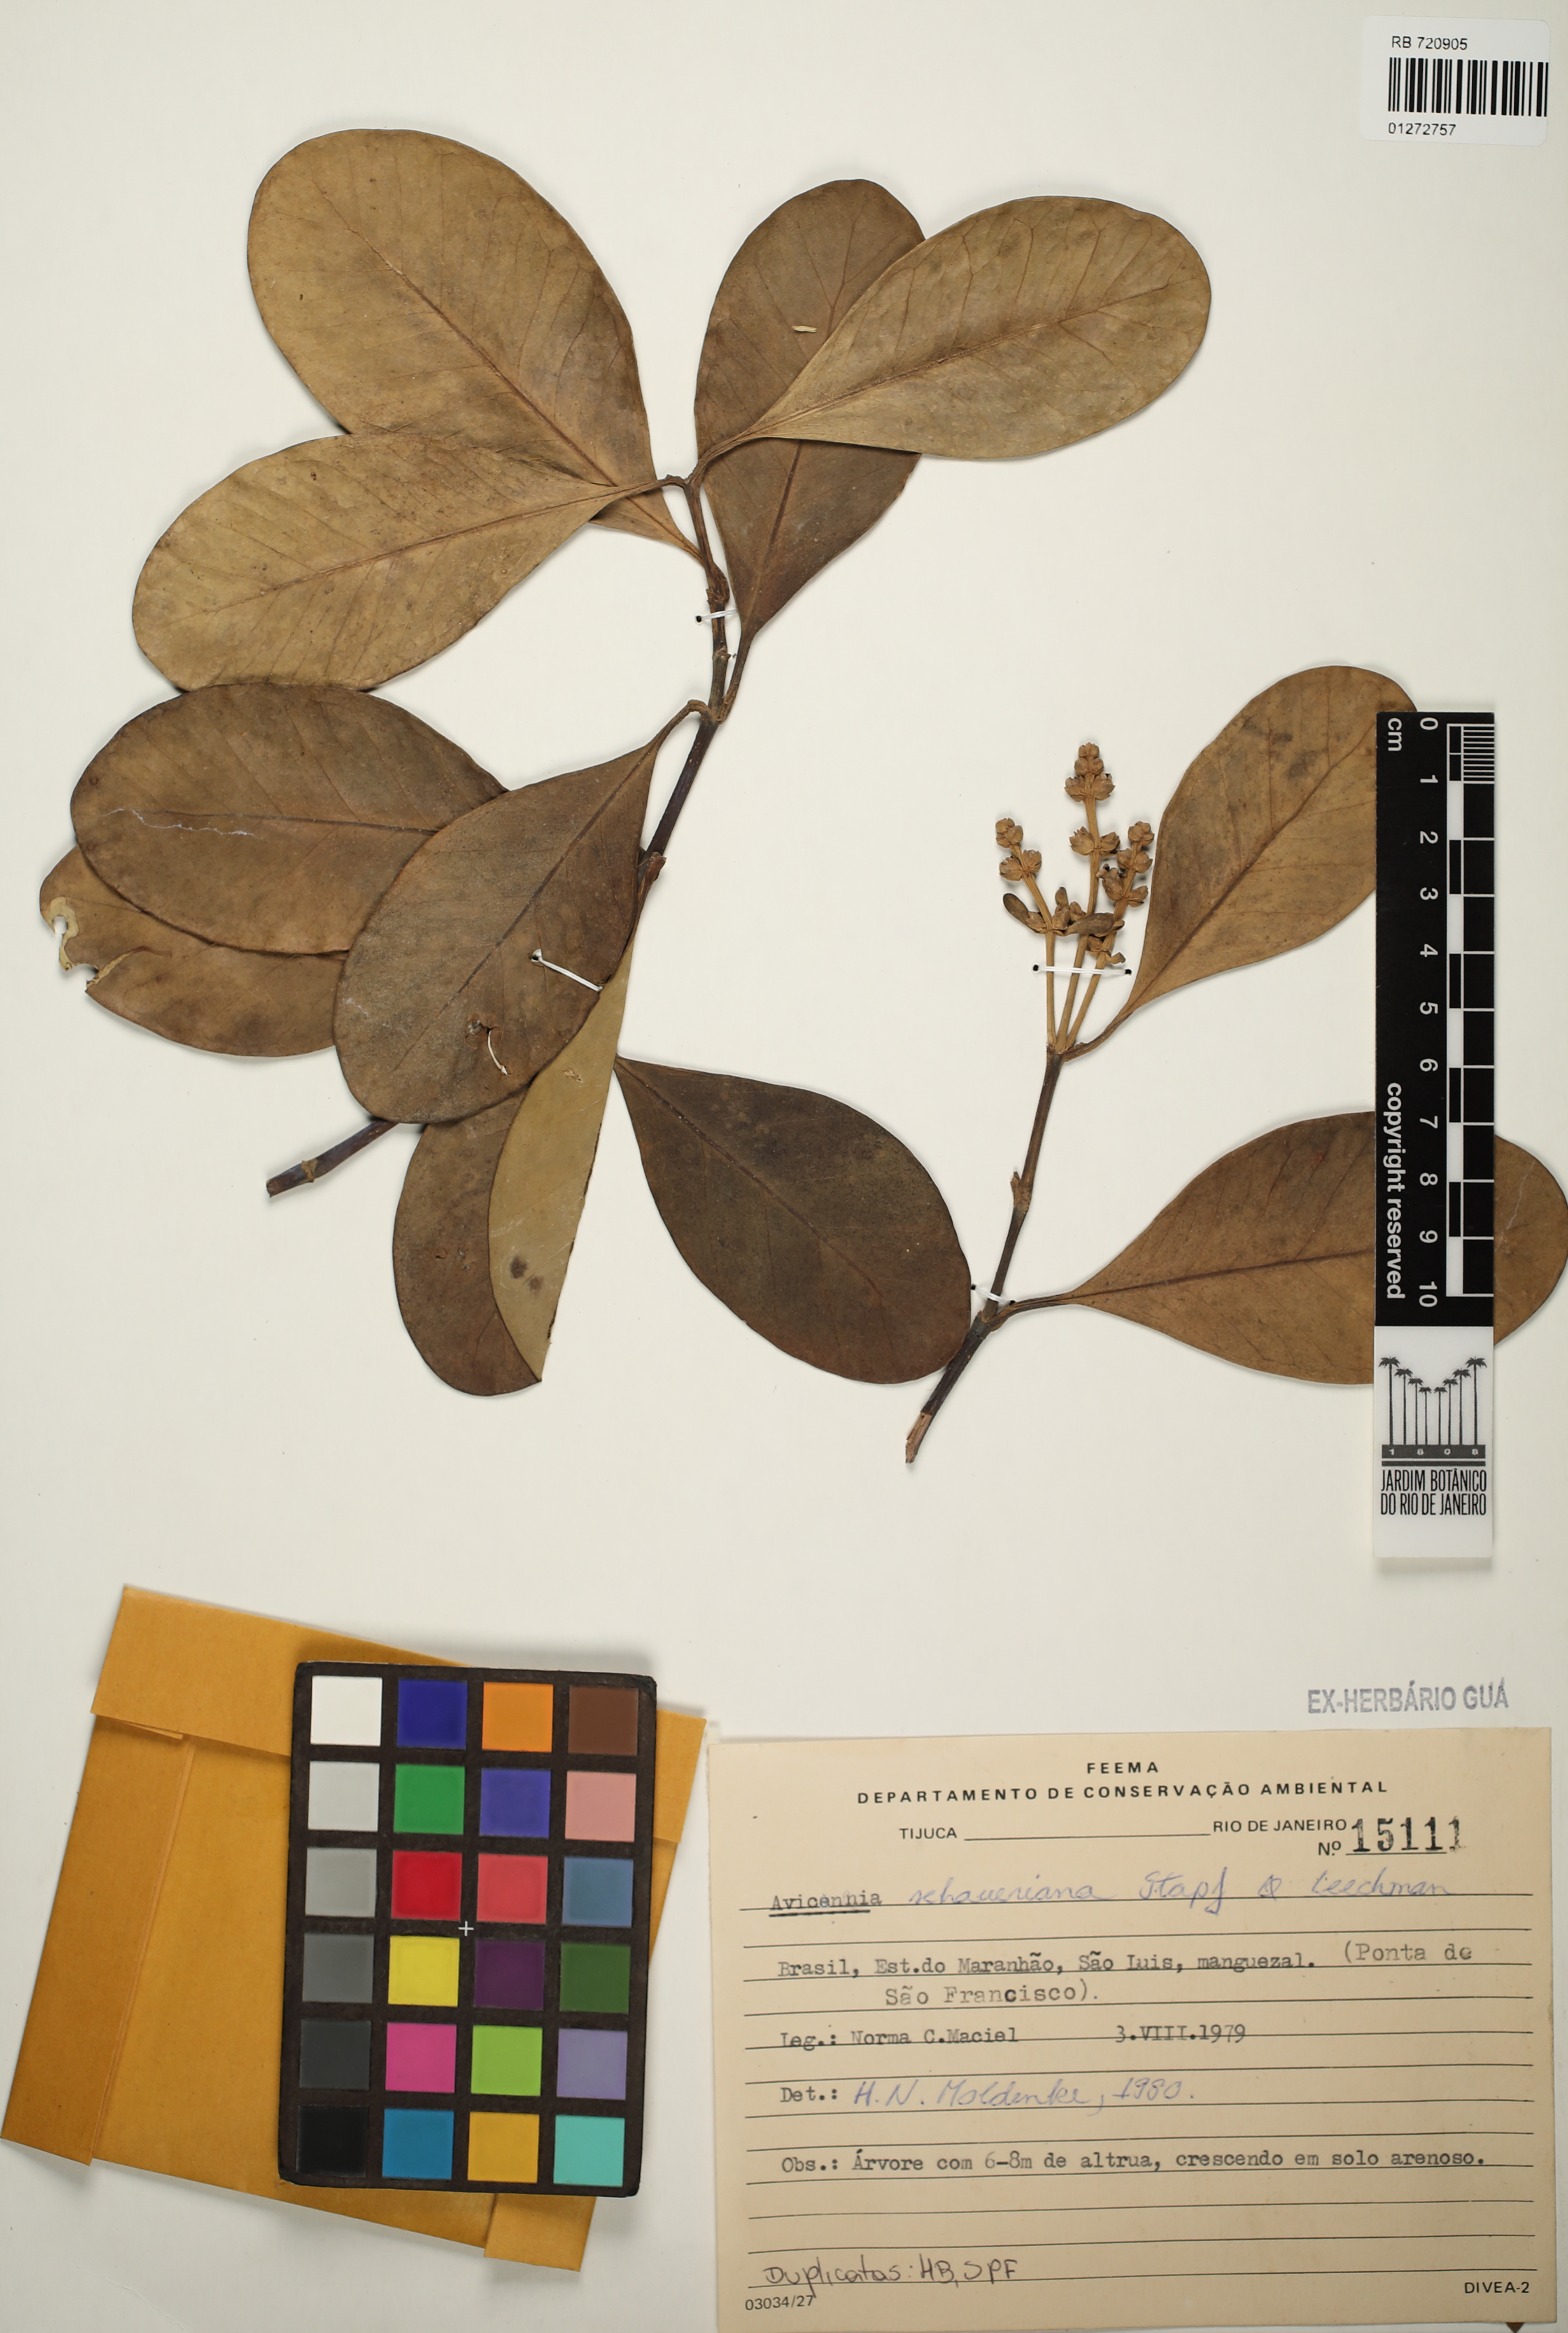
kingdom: Plantae
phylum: Tracheophyta
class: Magnoliopsida
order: Lamiales
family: Acanthaceae
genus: Avicennia
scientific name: Avicennia schaueriana
